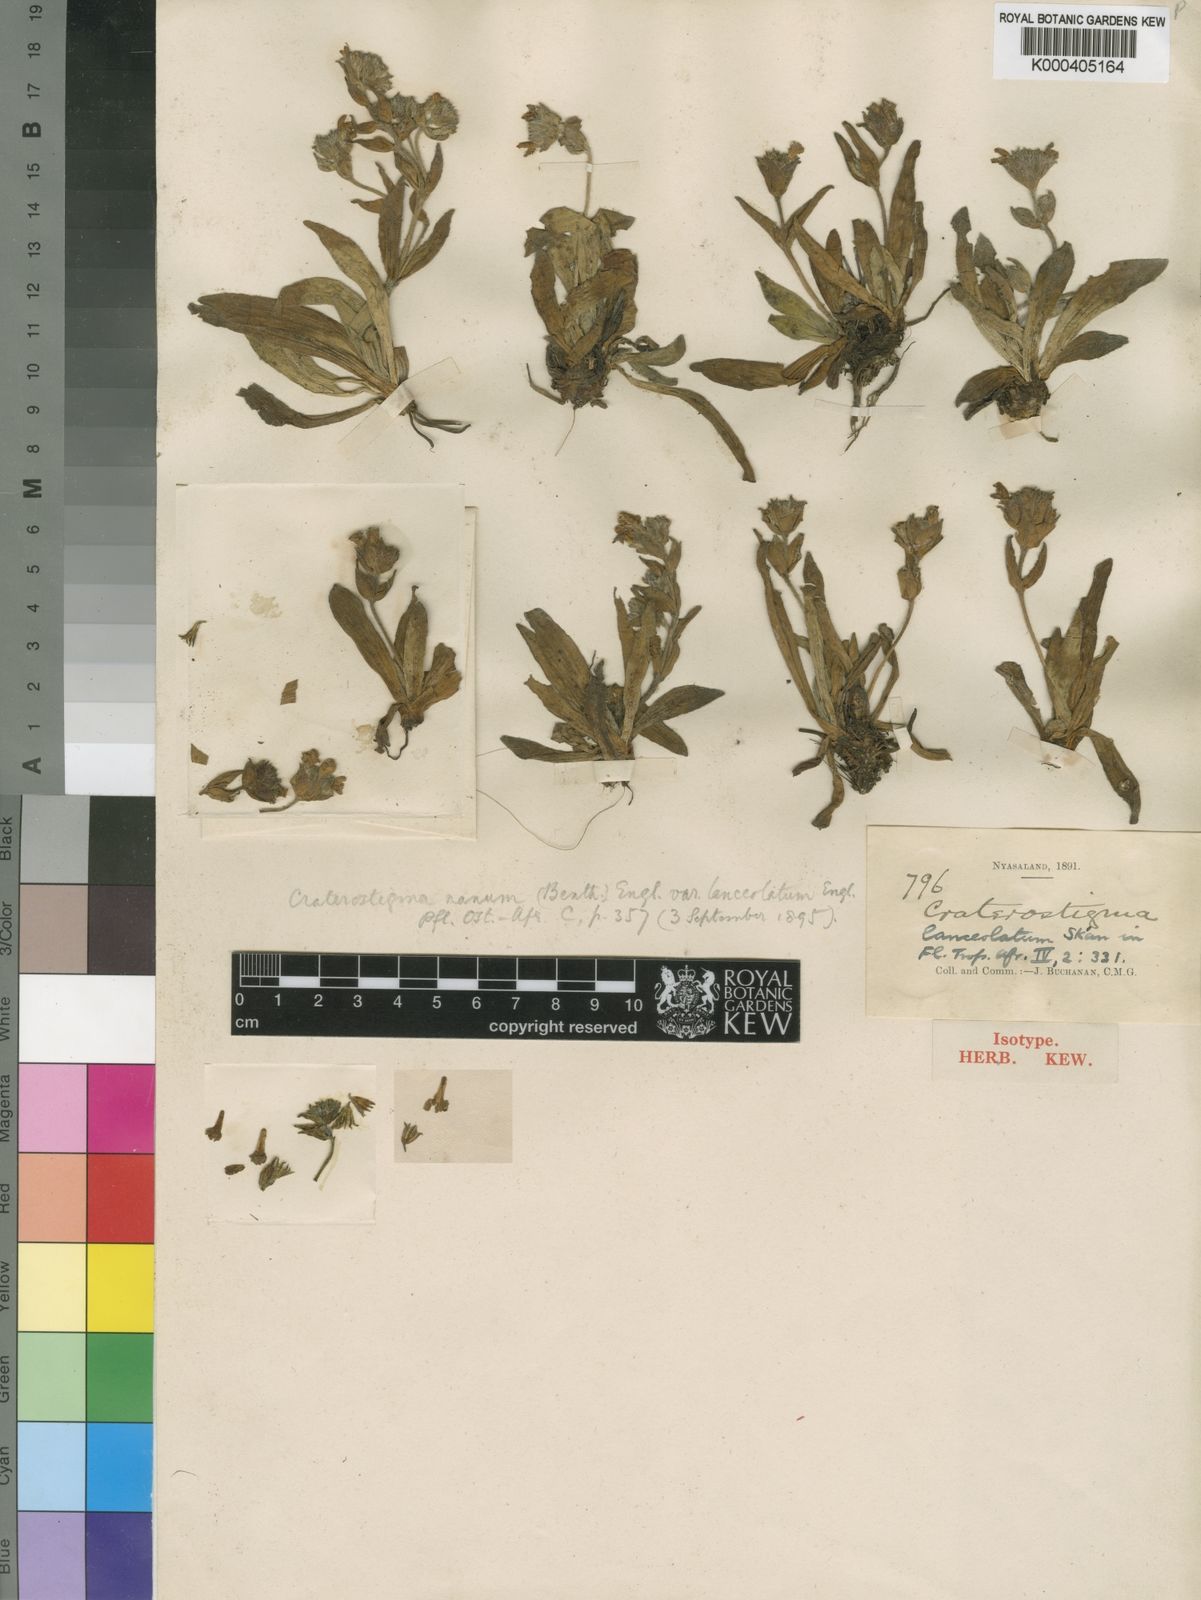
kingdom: Plantae
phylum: Tracheophyta
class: Magnoliopsida
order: Lamiales
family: Linderniaceae
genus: Craterostigma
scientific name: Craterostigma lanceolatum
